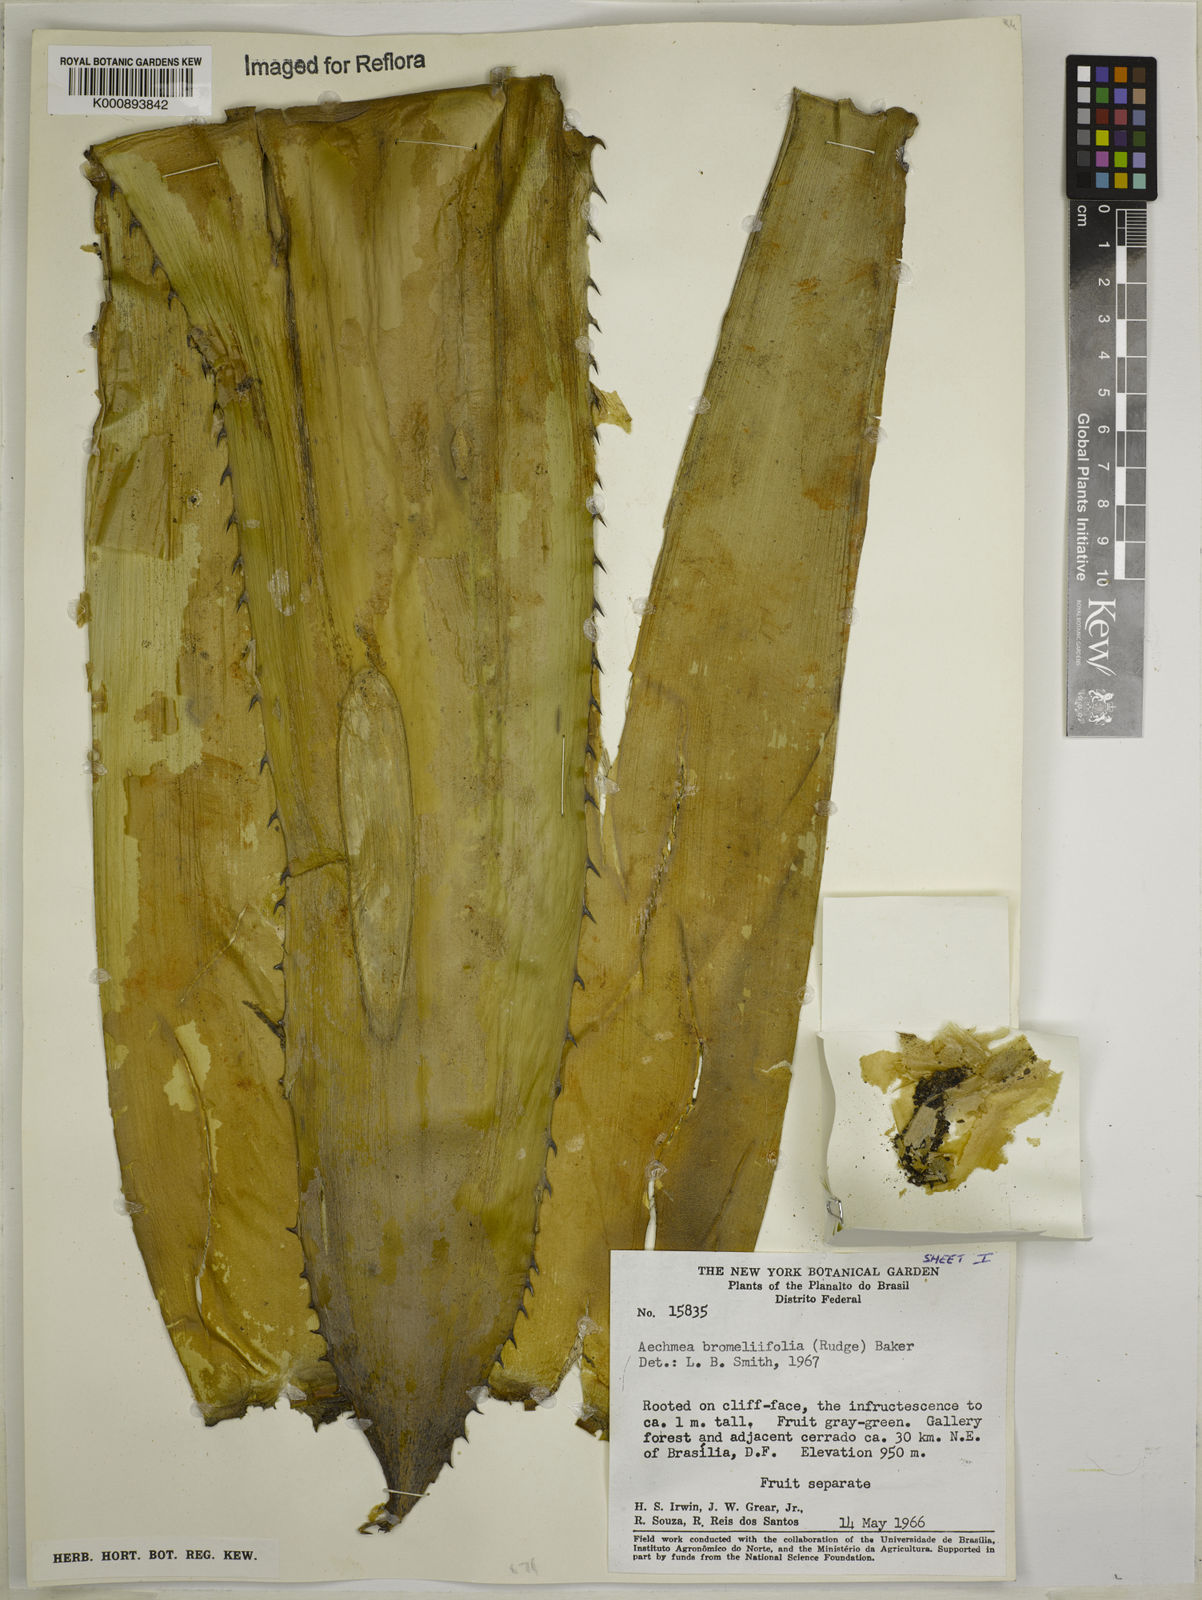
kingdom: Plantae
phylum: Tracheophyta
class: Liliopsida
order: Poales
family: Bromeliaceae
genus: Aechmea
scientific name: Aechmea
